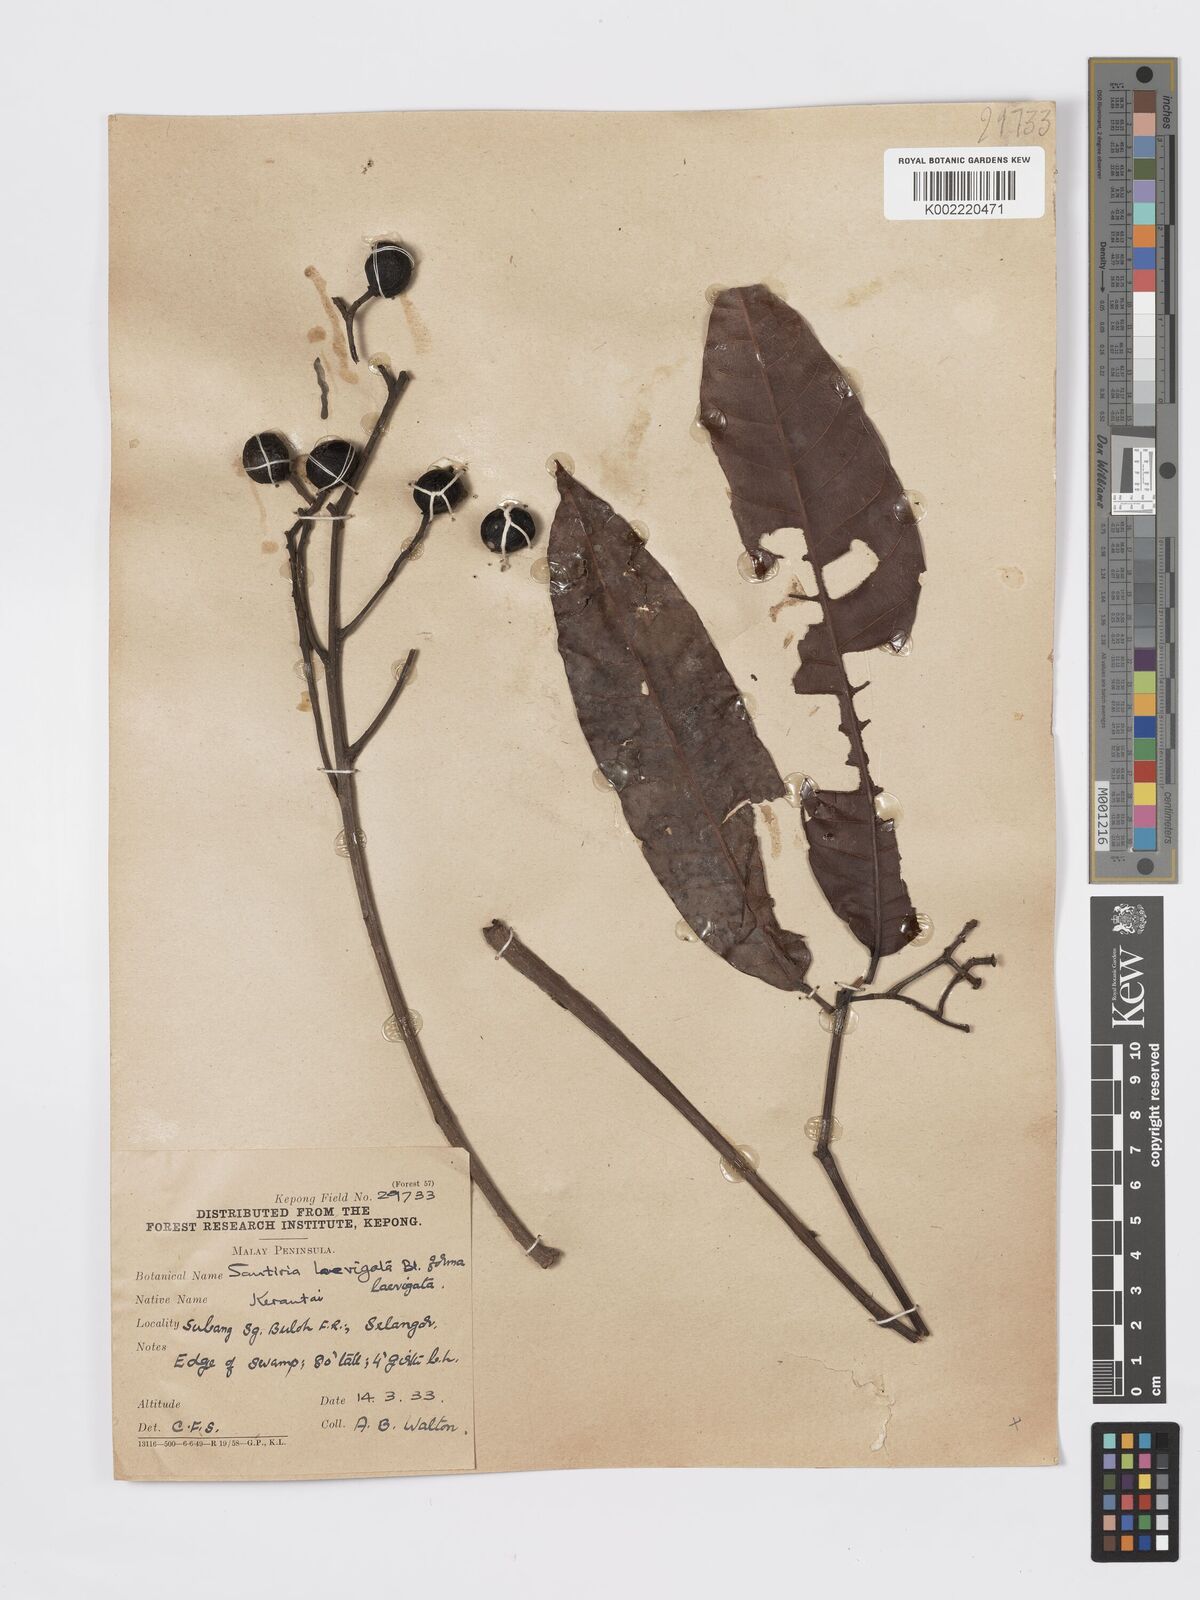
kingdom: Plantae
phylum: Tracheophyta
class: Magnoliopsida
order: Sapindales
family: Burseraceae
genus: Santiria
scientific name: Santiria laevigata
